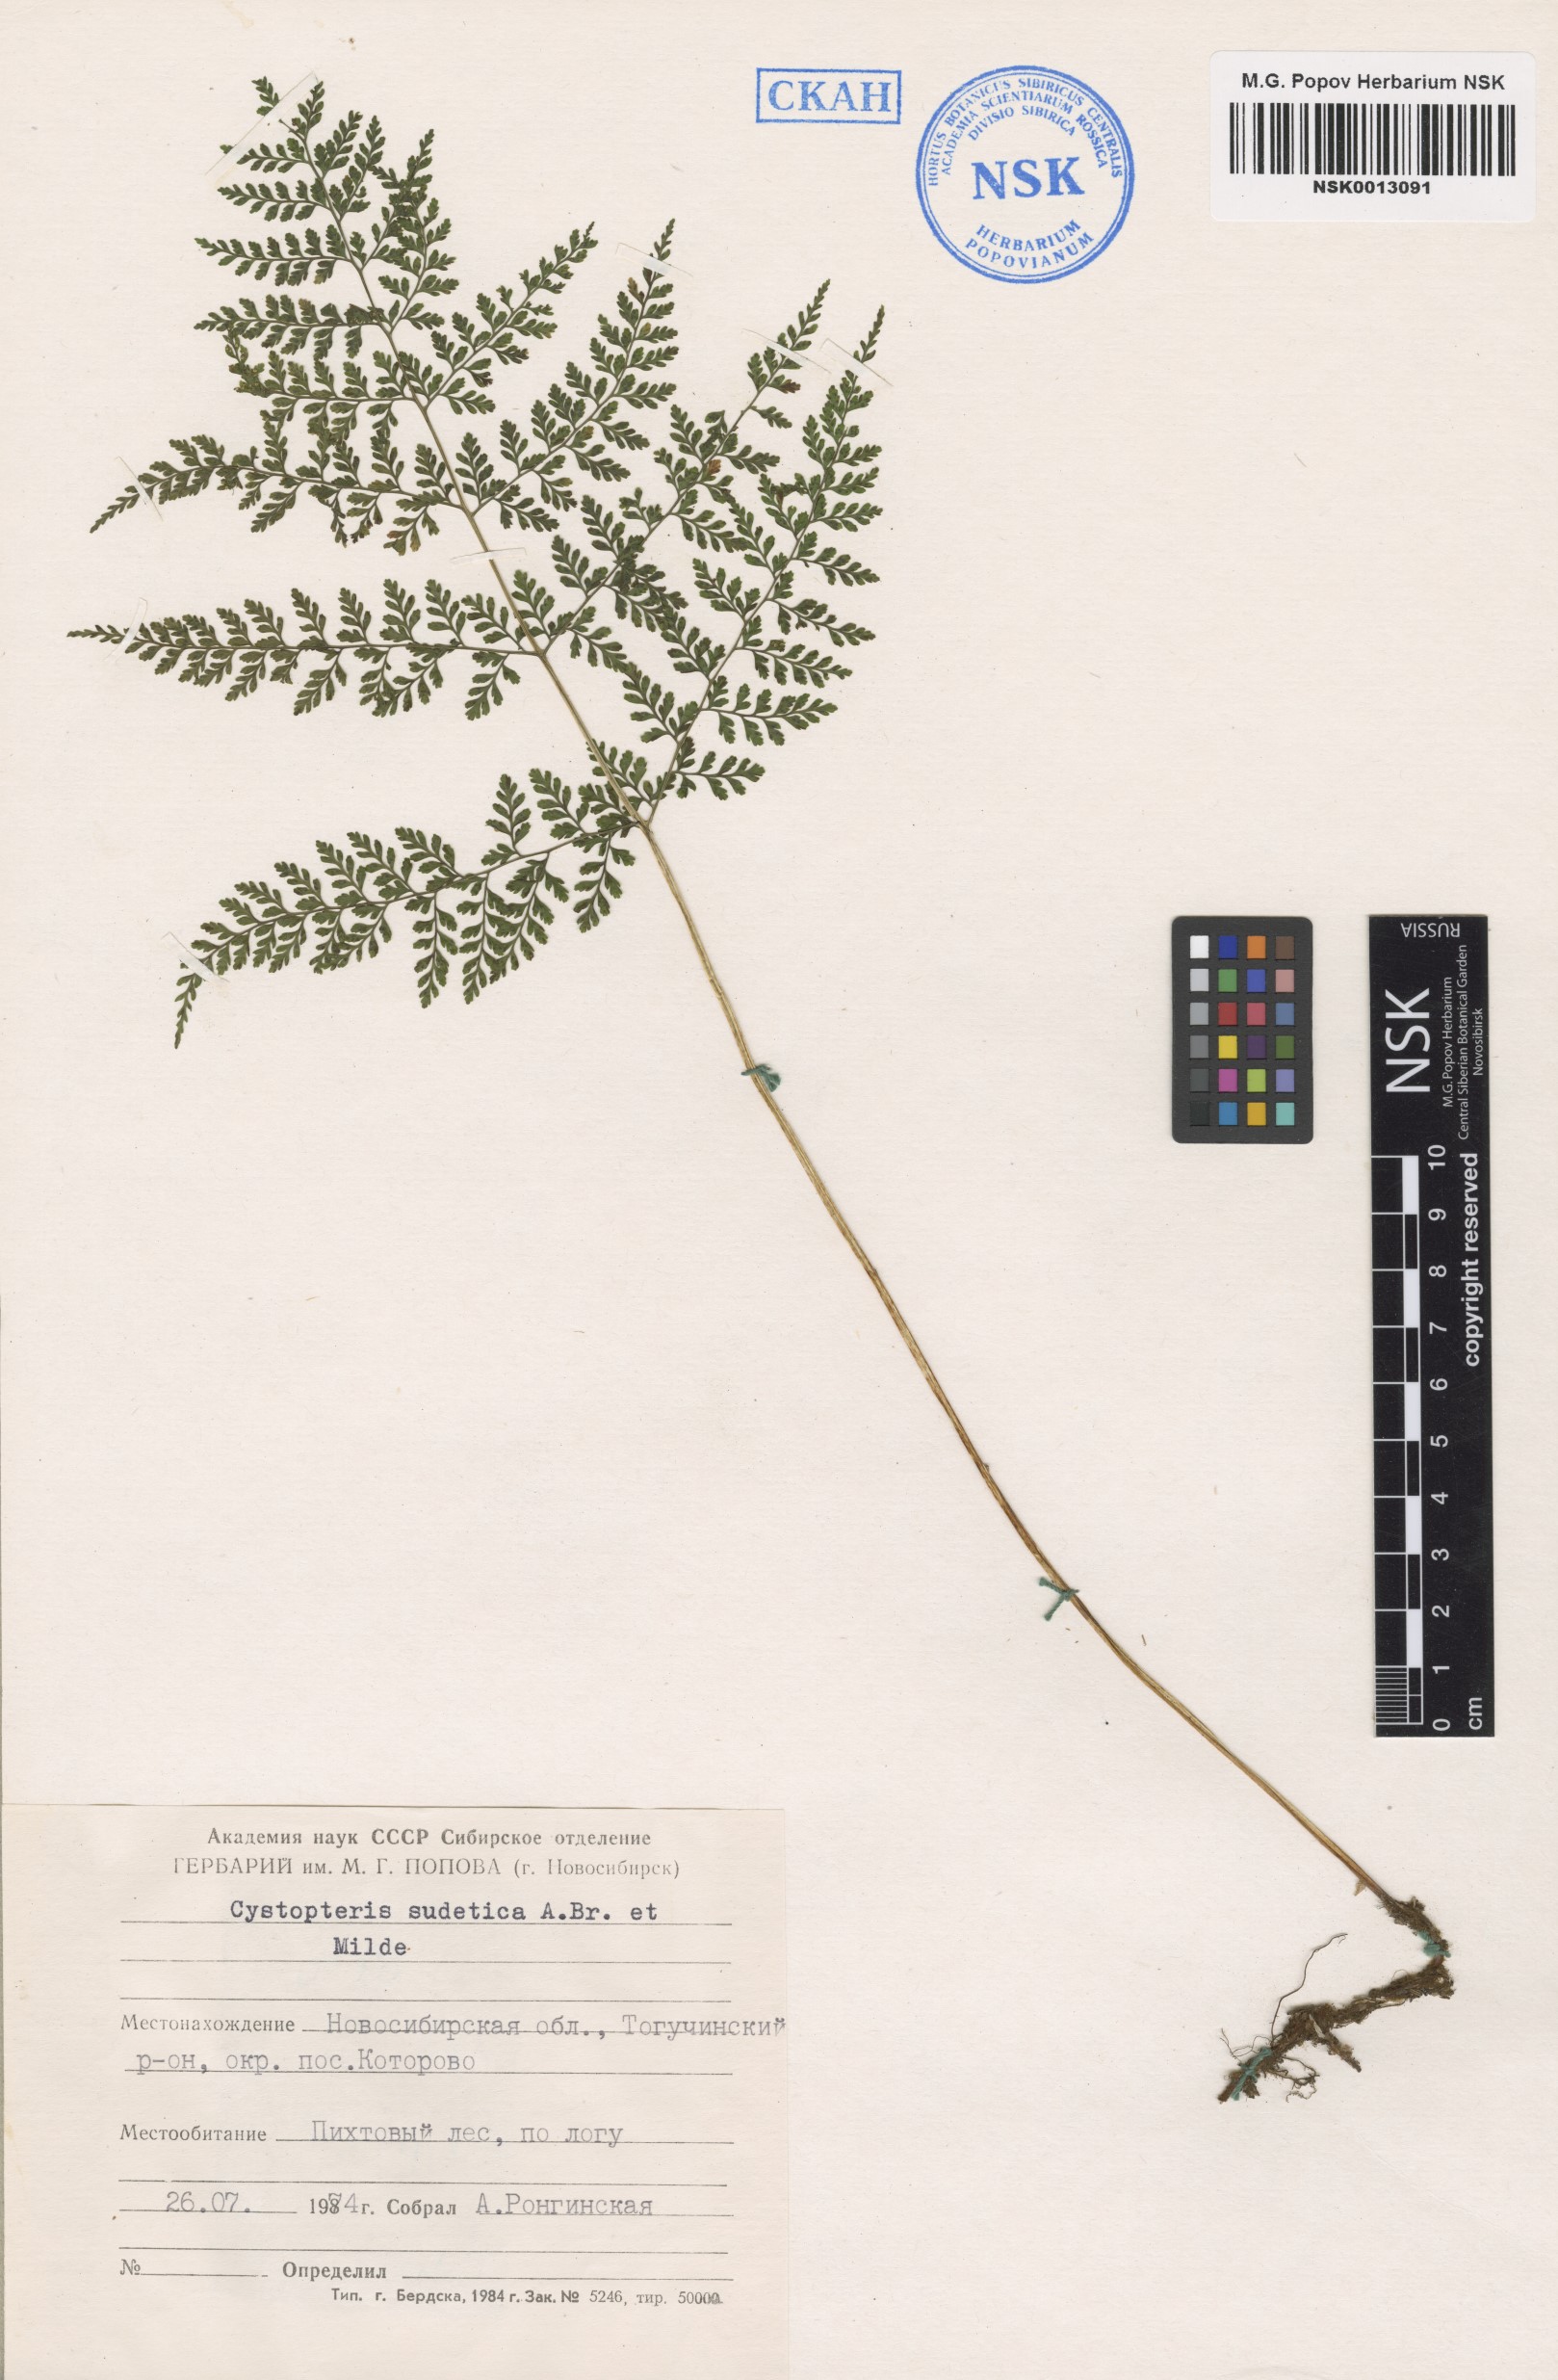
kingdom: Plantae
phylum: Tracheophyta
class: Polypodiopsida
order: Polypodiales
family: Cystopteridaceae
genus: Cystopteris
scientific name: Cystopteris sudetica
